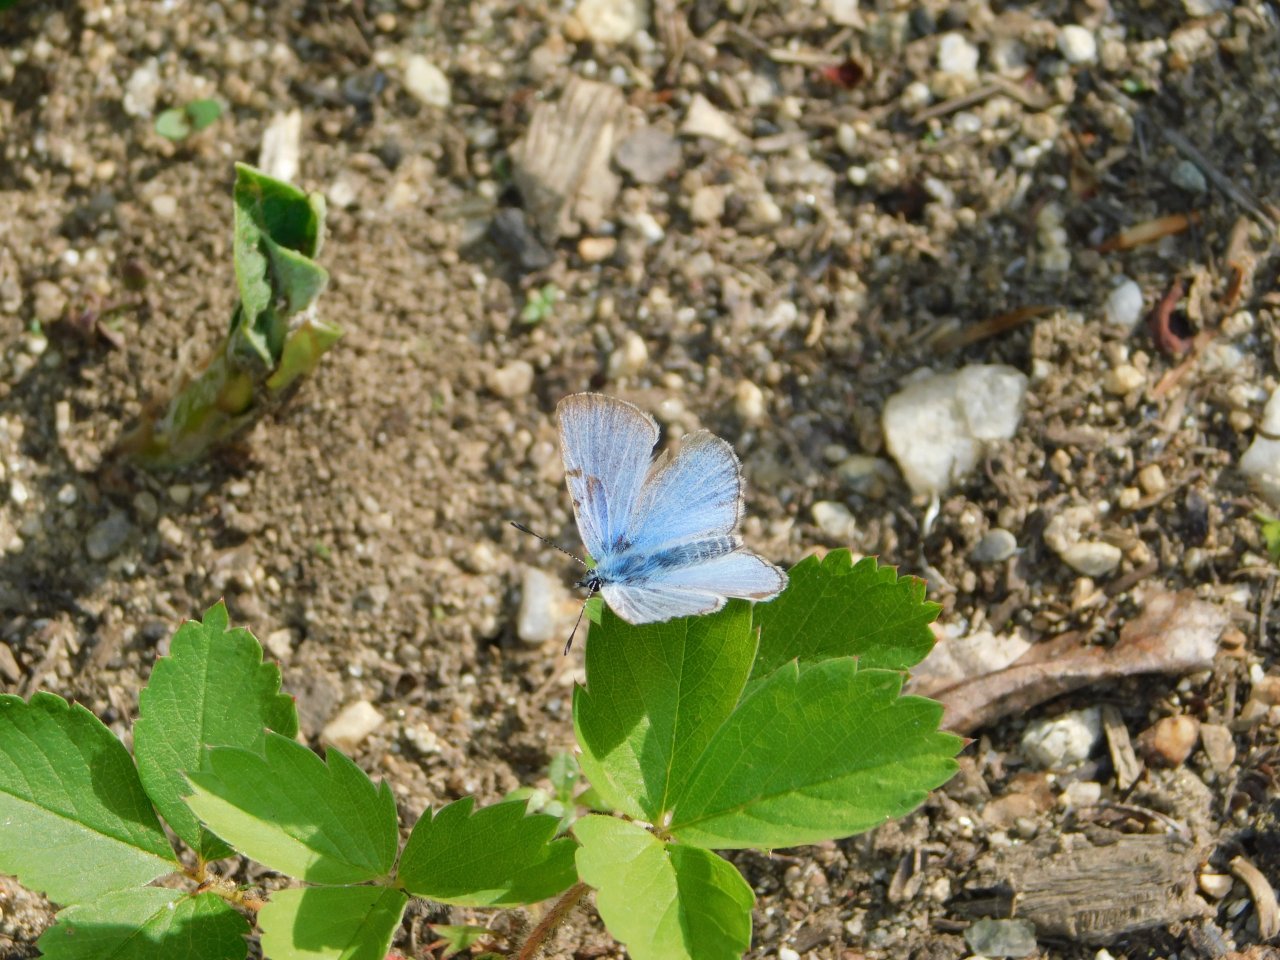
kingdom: Animalia
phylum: Arthropoda
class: Insecta
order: Lepidoptera
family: Lycaenidae
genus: Celastrina
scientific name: Celastrina ladon
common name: Spring Azure
